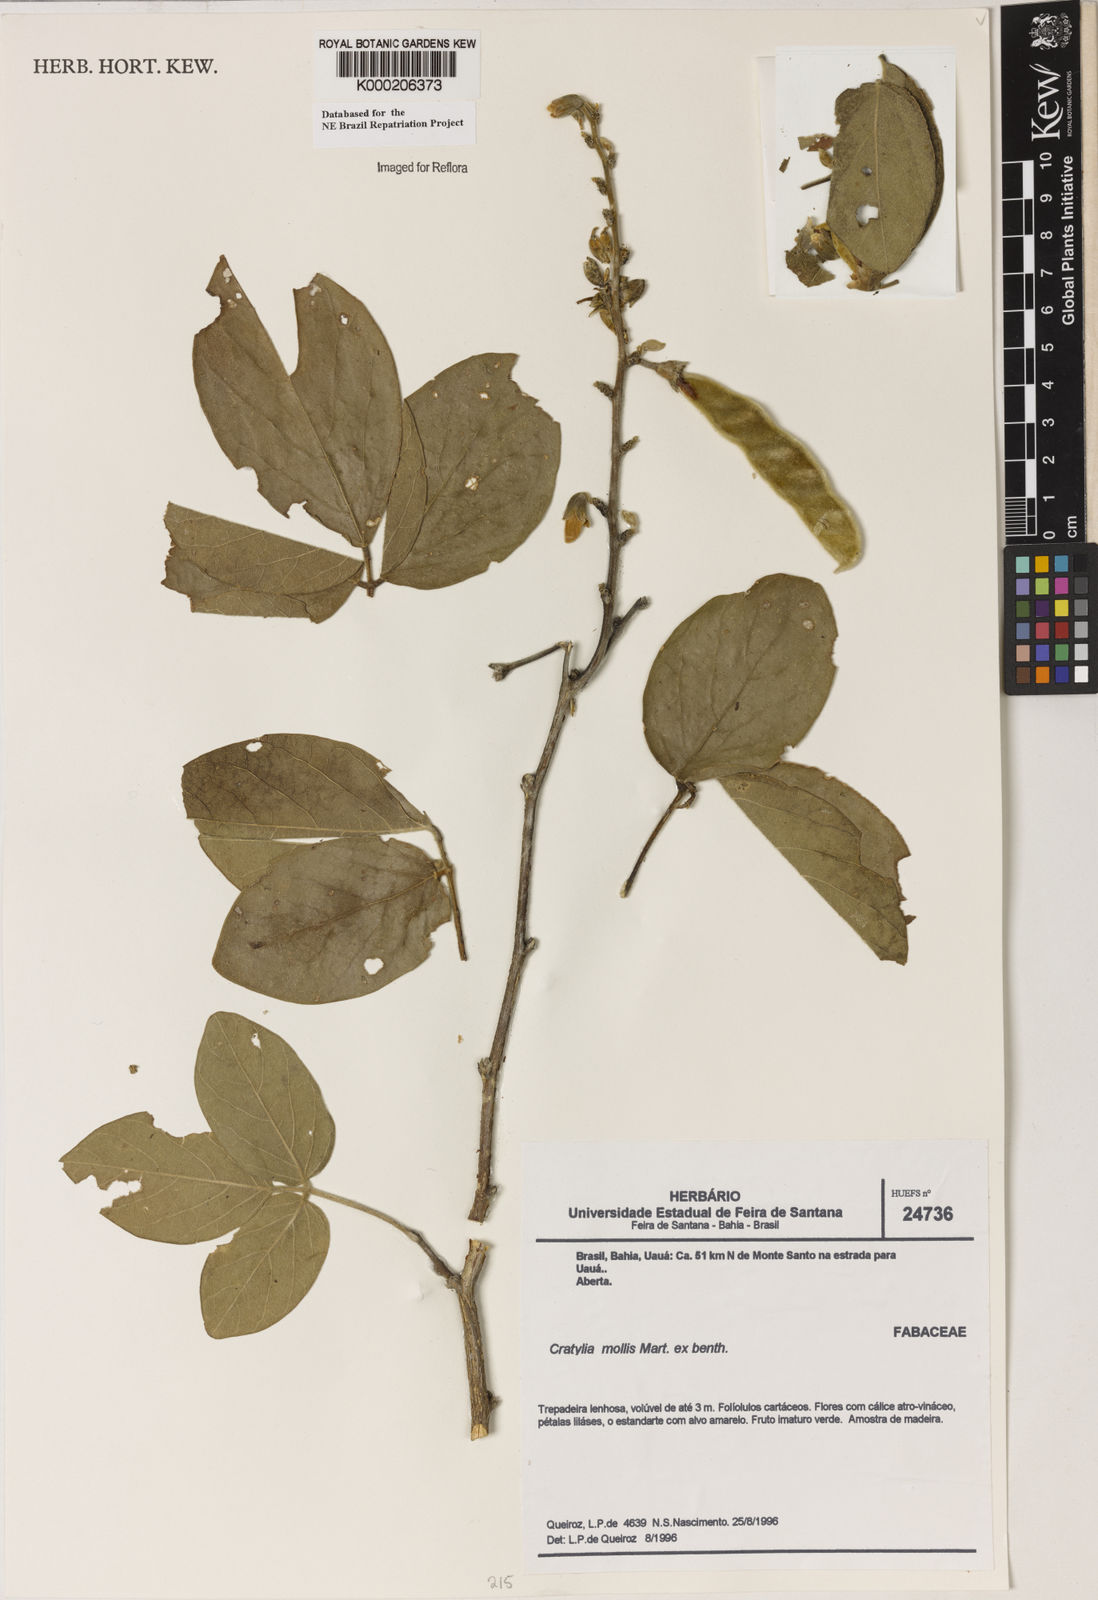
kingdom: Plantae
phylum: Tracheophyta
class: Magnoliopsida
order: Fabales
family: Fabaceae
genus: Cratylia
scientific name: Cratylia mollis
